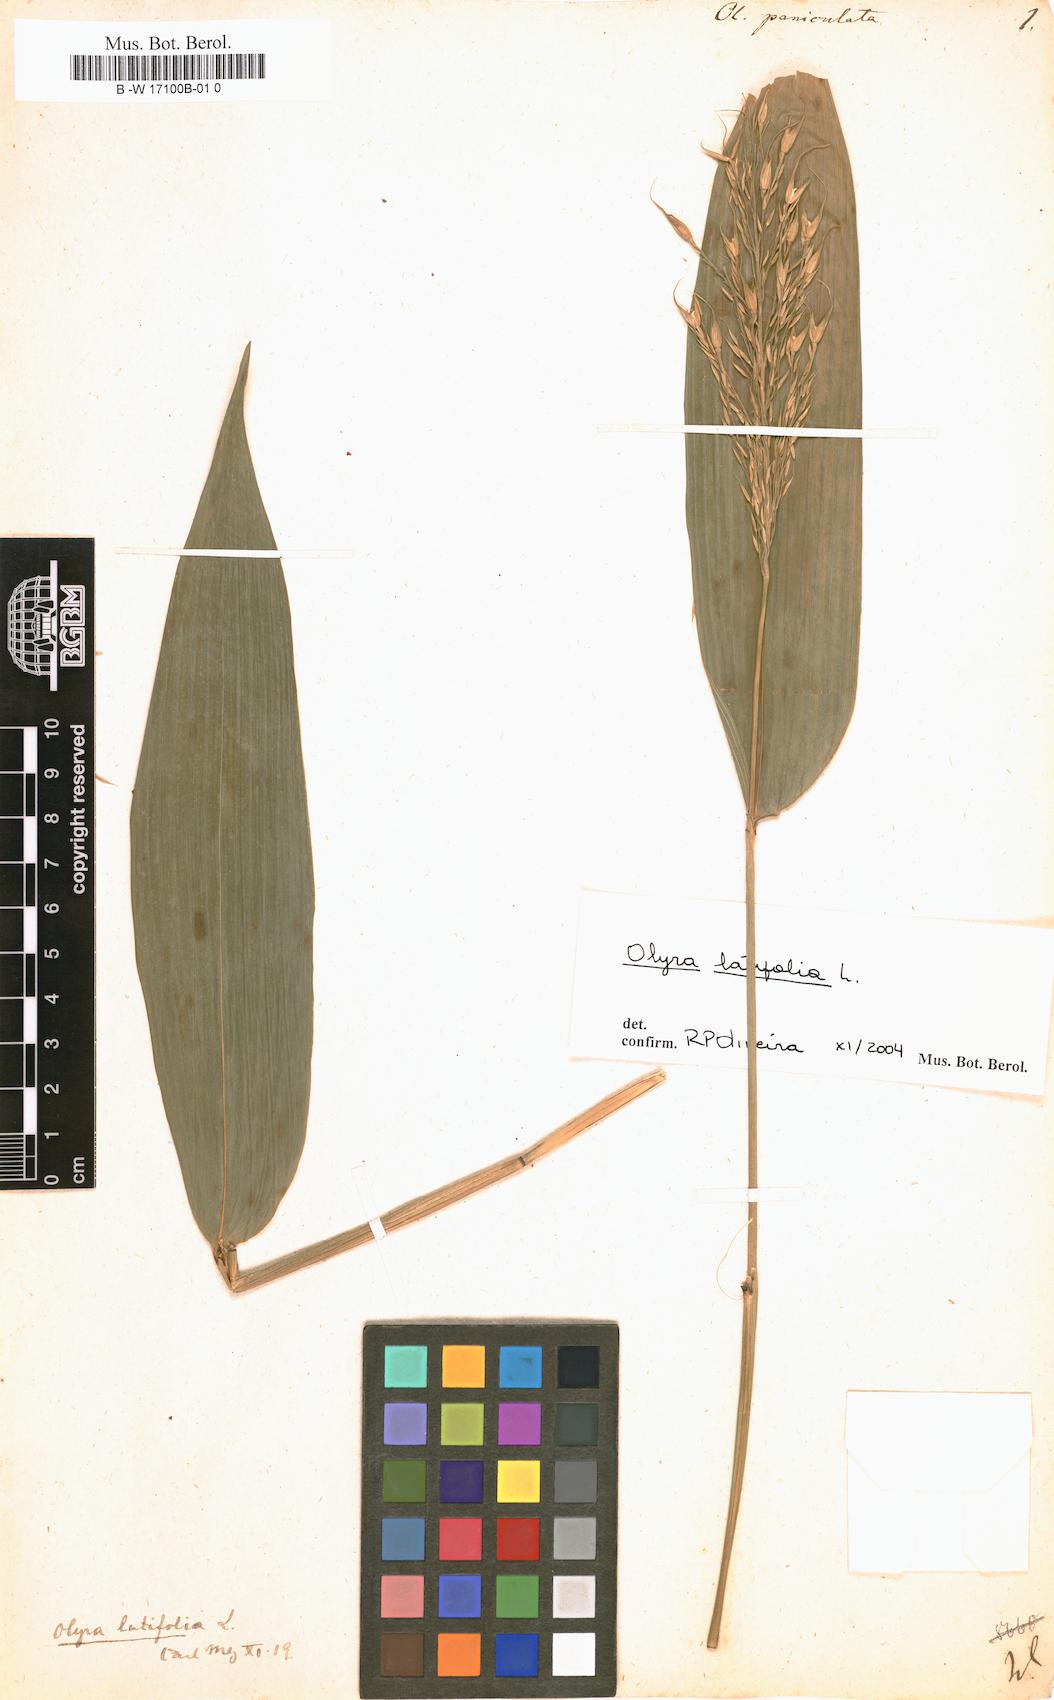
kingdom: Plantae
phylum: Tracheophyta
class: Liliopsida
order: Poales
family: Poaceae
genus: Olyra
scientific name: Olyra latifolia
